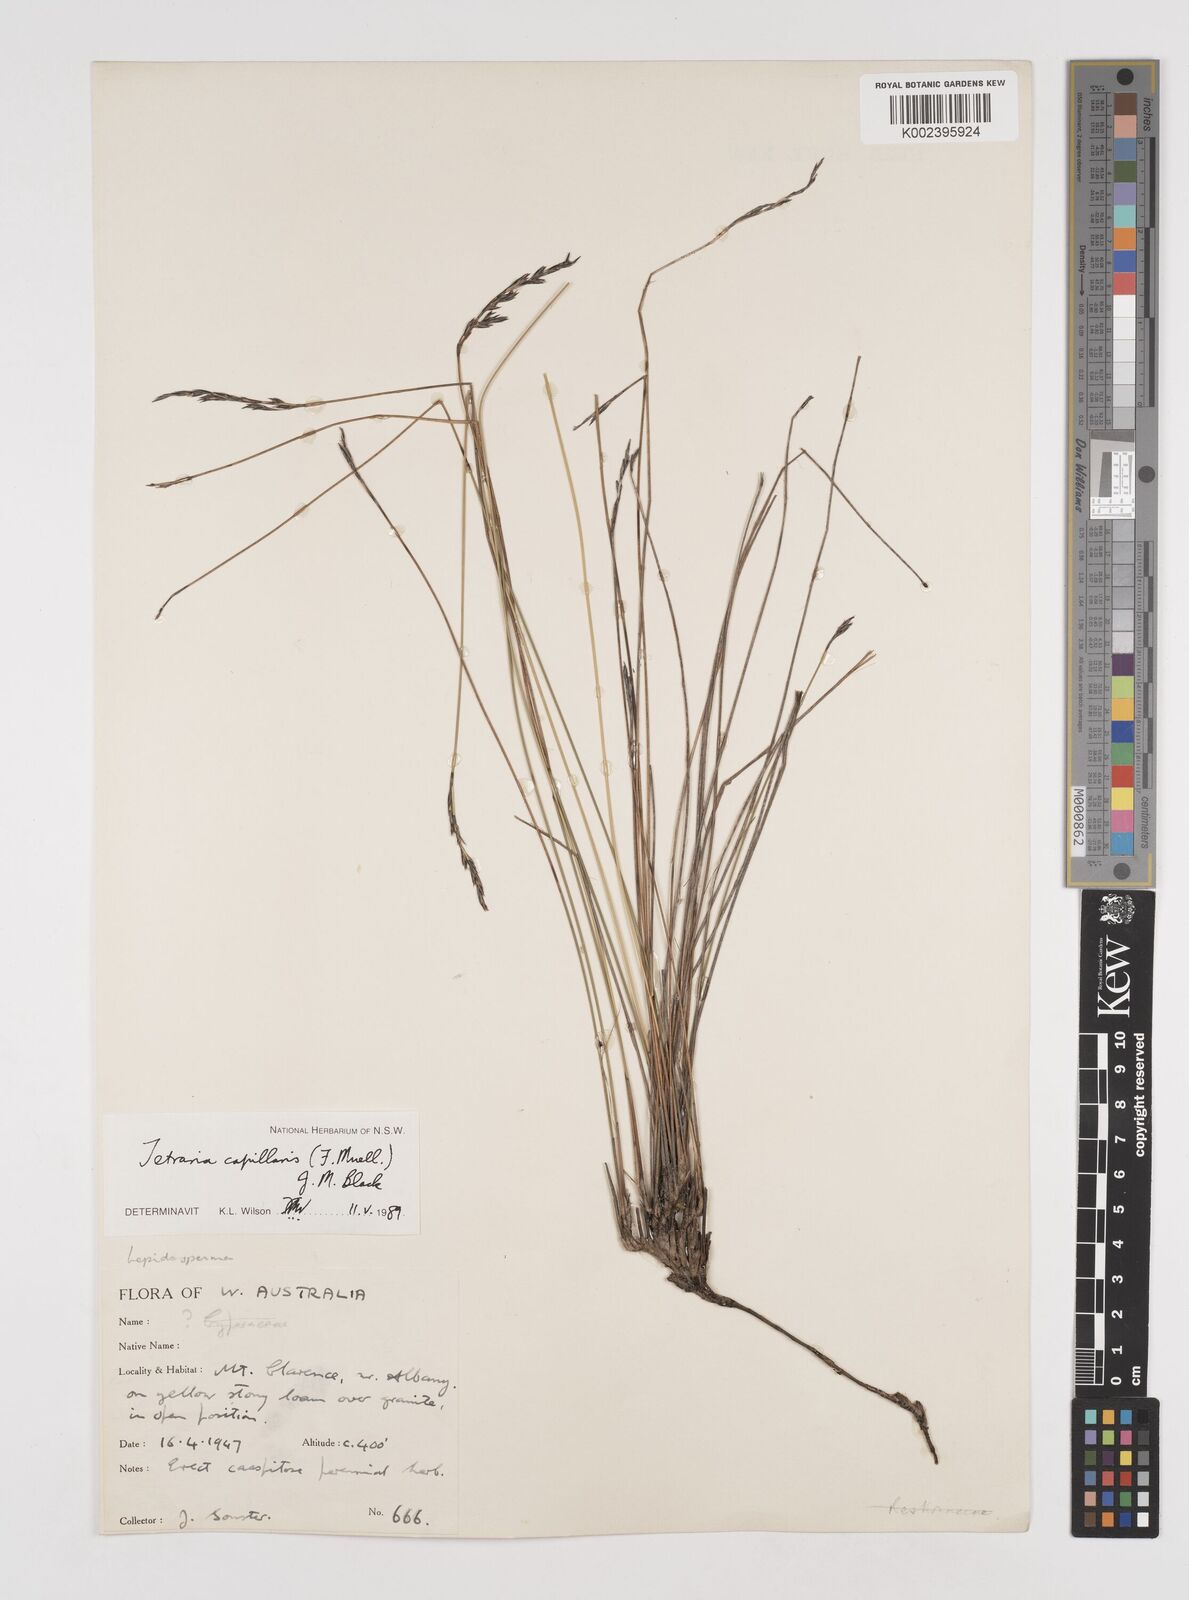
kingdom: Plantae
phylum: Tracheophyta
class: Liliopsida
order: Poales
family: Cyperaceae
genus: Tetraria
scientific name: Tetraria capillaris
